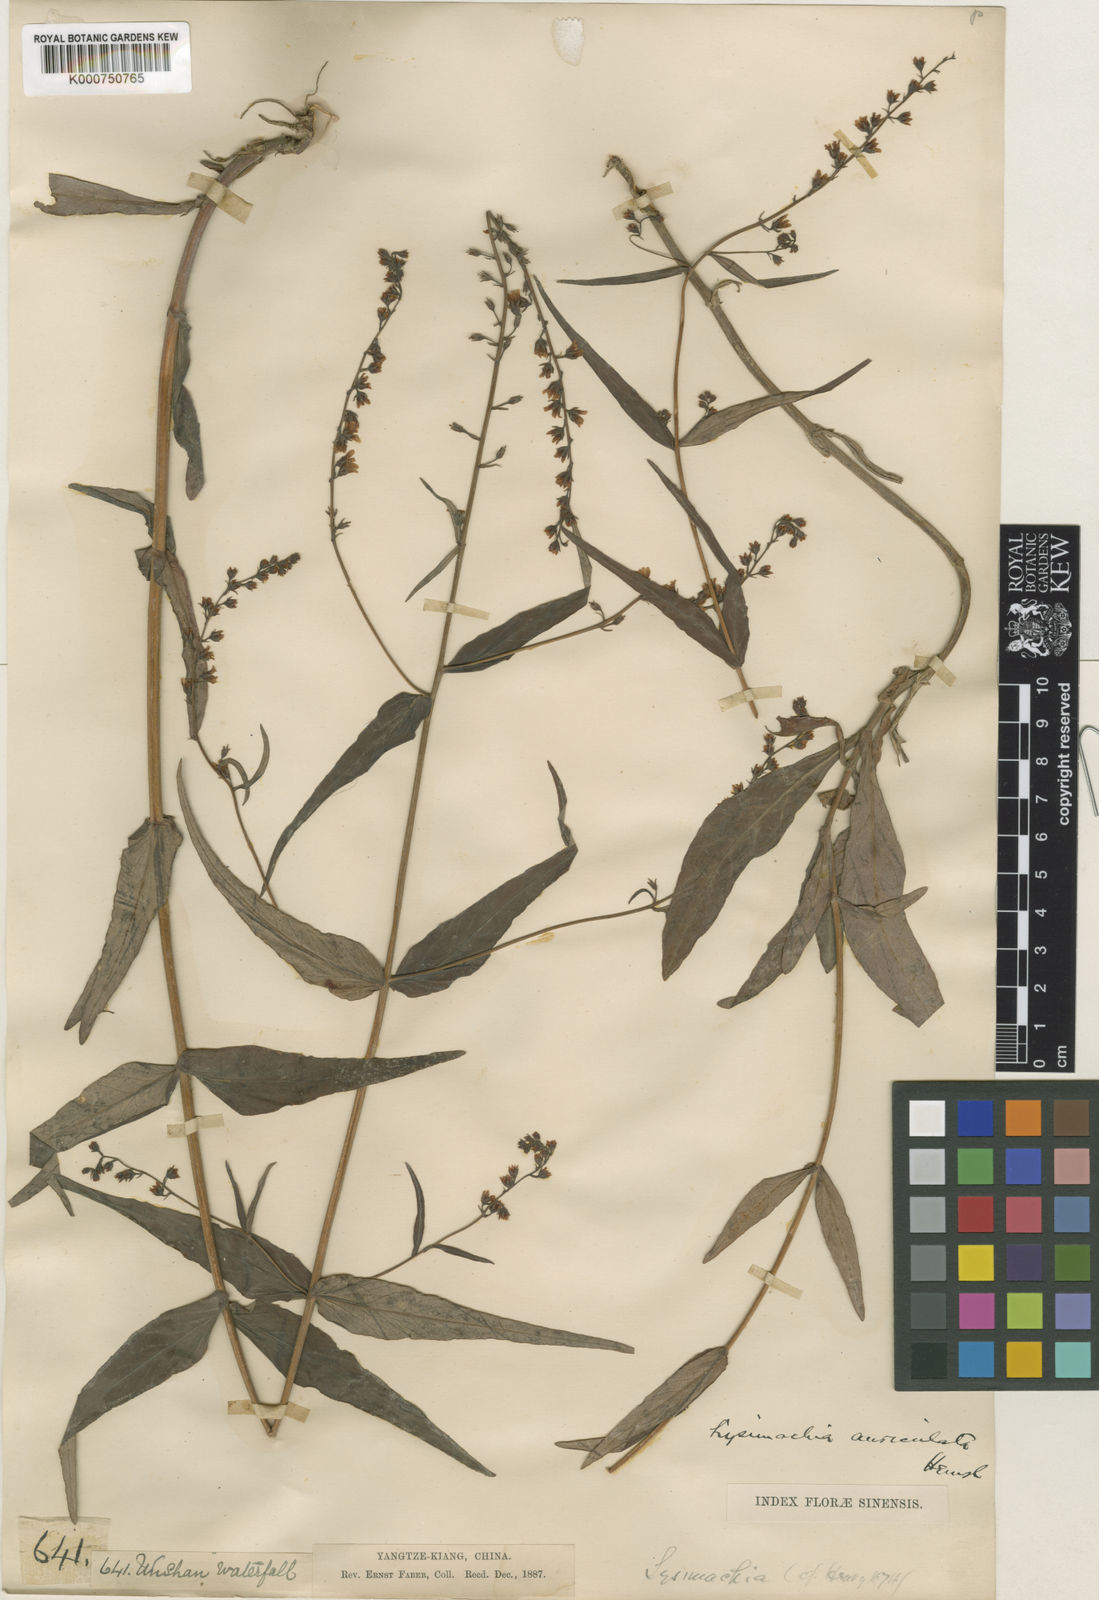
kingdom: Plantae
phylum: Tracheophyta
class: Magnoliopsida
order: Ericales
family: Primulaceae
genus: Lysimachia
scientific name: Lysimachia auriculata
